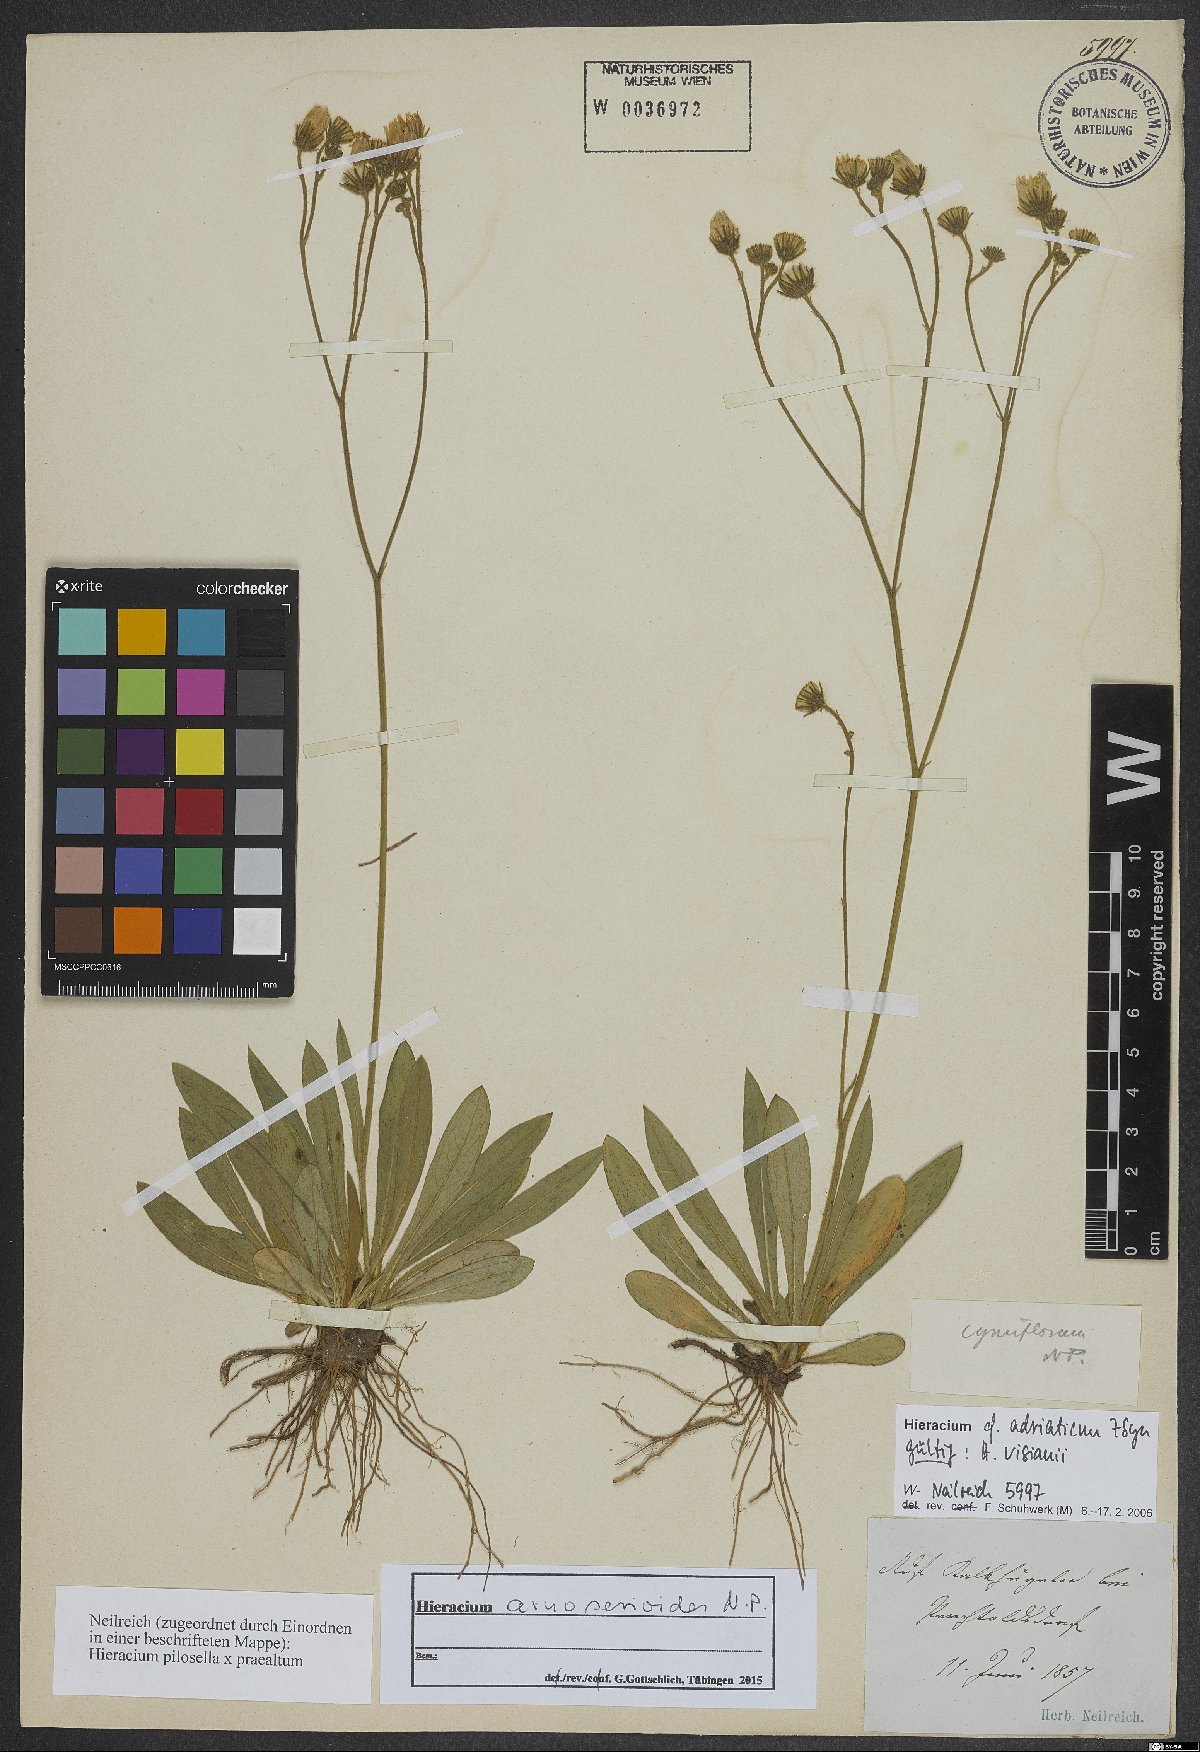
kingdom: Plantae
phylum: Tracheophyta
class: Magnoliopsida
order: Asterales
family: Asteraceae
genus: Pilosella
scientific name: Pilosella arnoserioides
